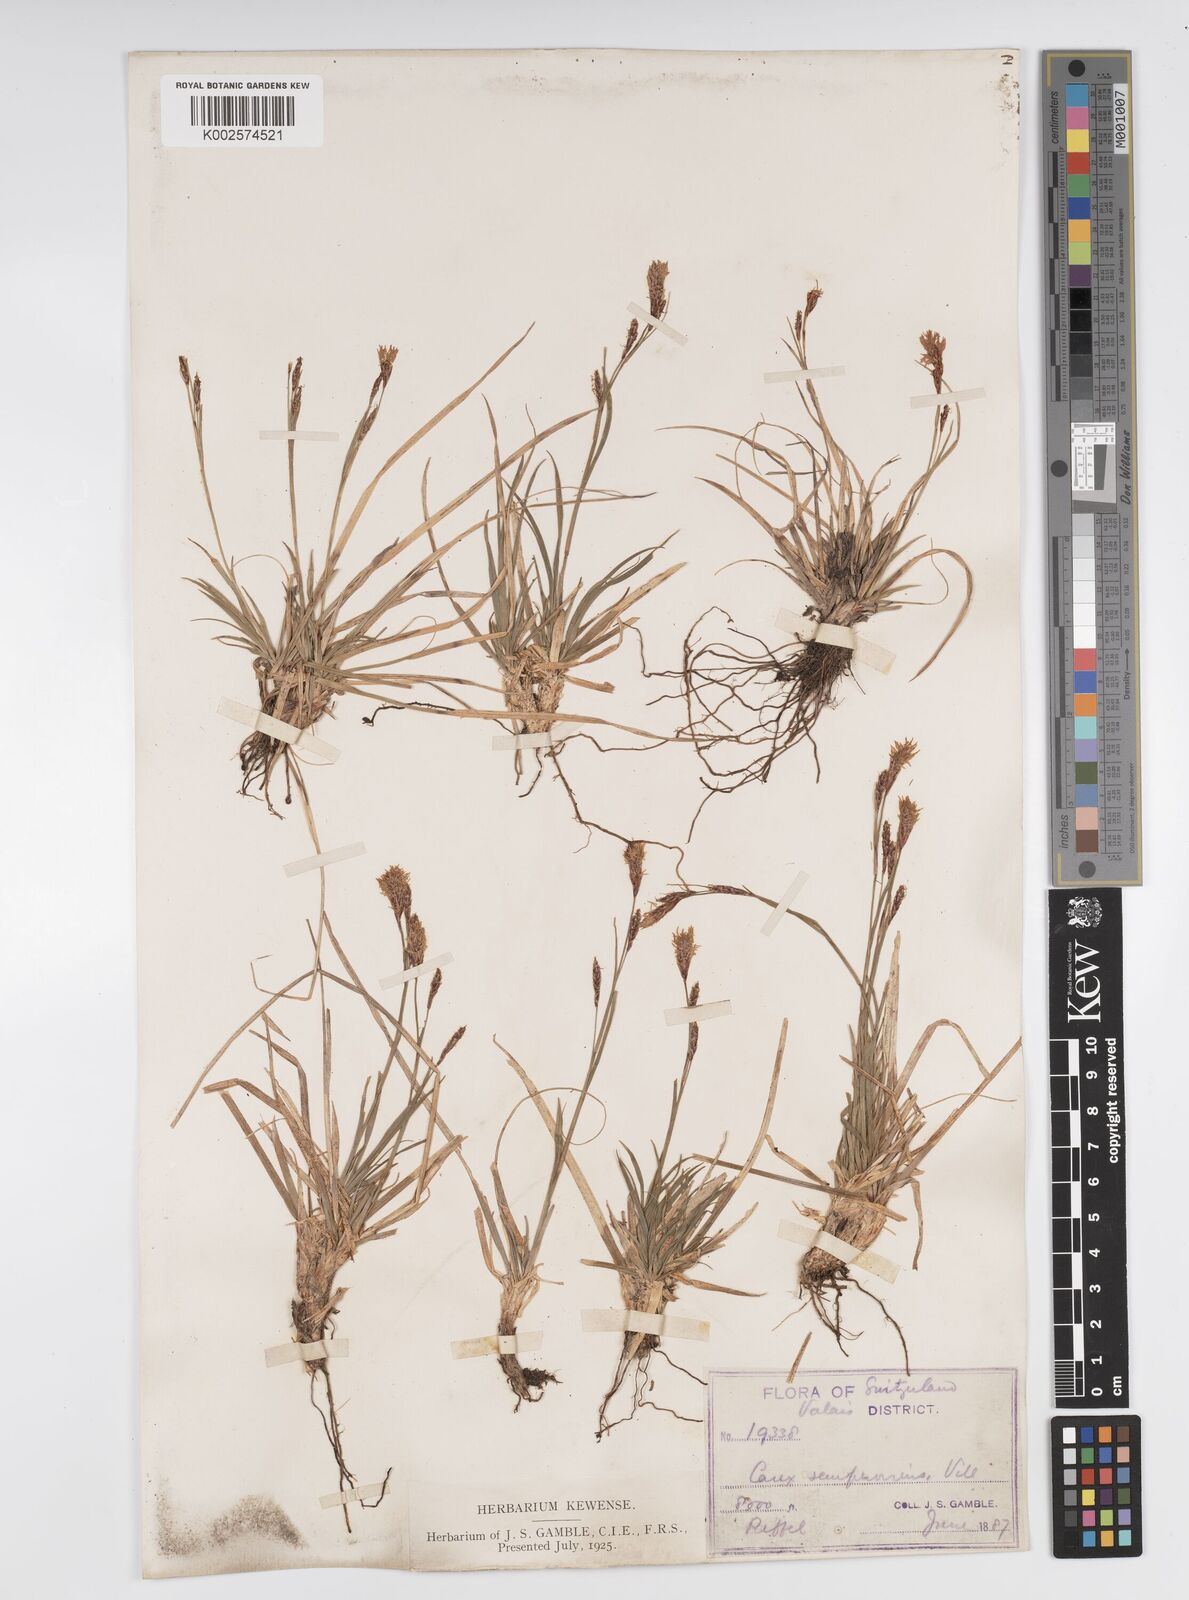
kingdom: Plantae
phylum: Tracheophyta
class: Liliopsida
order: Poales
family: Cyperaceae
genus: Carex
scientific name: Carex sempervirens
